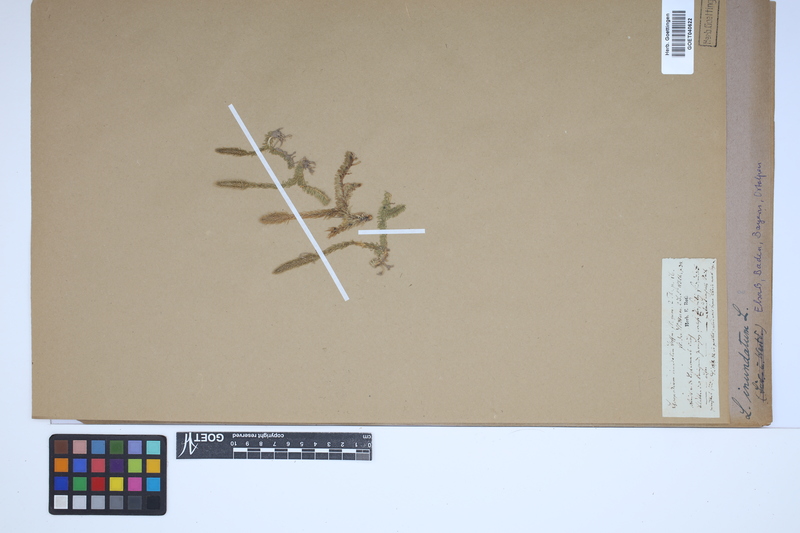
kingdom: Plantae
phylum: Tracheophyta
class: Lycopodiopsida
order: Lycopodiales
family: Lycopodiaceae
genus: Lycopodiella
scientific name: Lycopodiella inundata
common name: Marsh clubmoss
